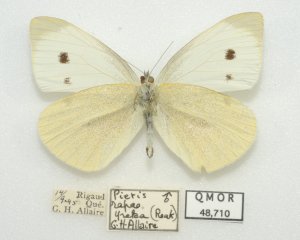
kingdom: Animalia
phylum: Arthropoda
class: Insecta
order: Lepidoptera
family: Pieridae
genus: Pieris
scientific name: Pieris rapae
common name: Cabbage White
